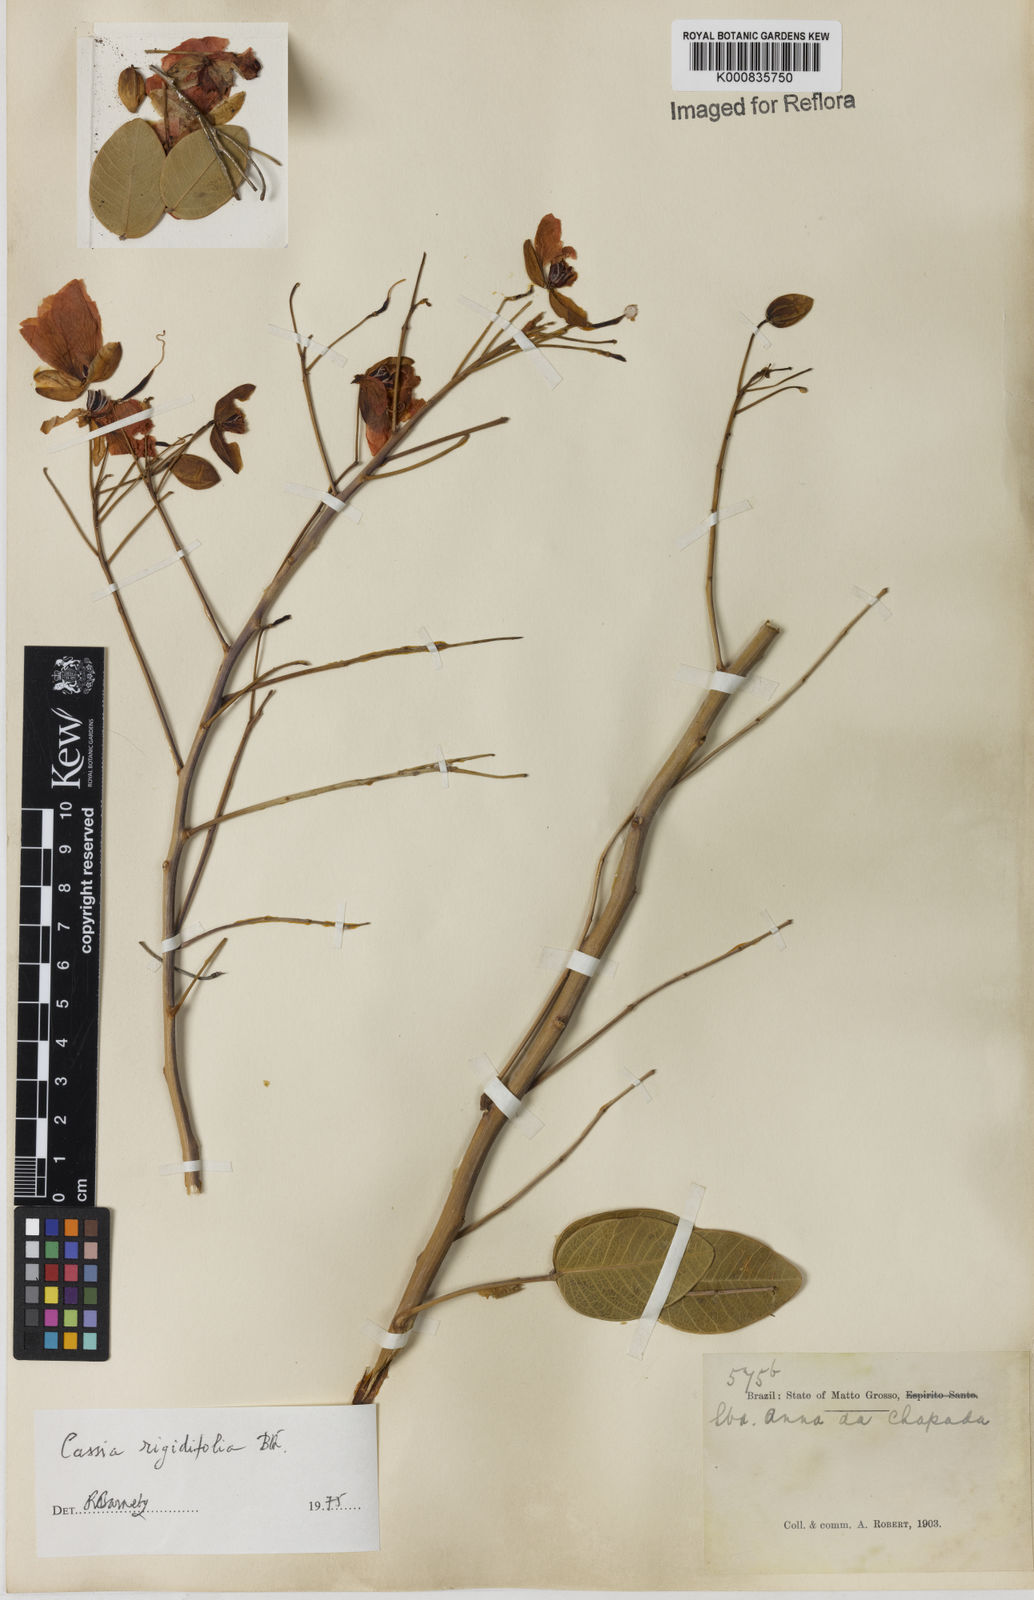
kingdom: Plantae
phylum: Tracheophyta
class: Magnoliopsida
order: Fabales
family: Fabaceae
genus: Chamaecrista
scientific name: Chamaecrista rigidifolia
